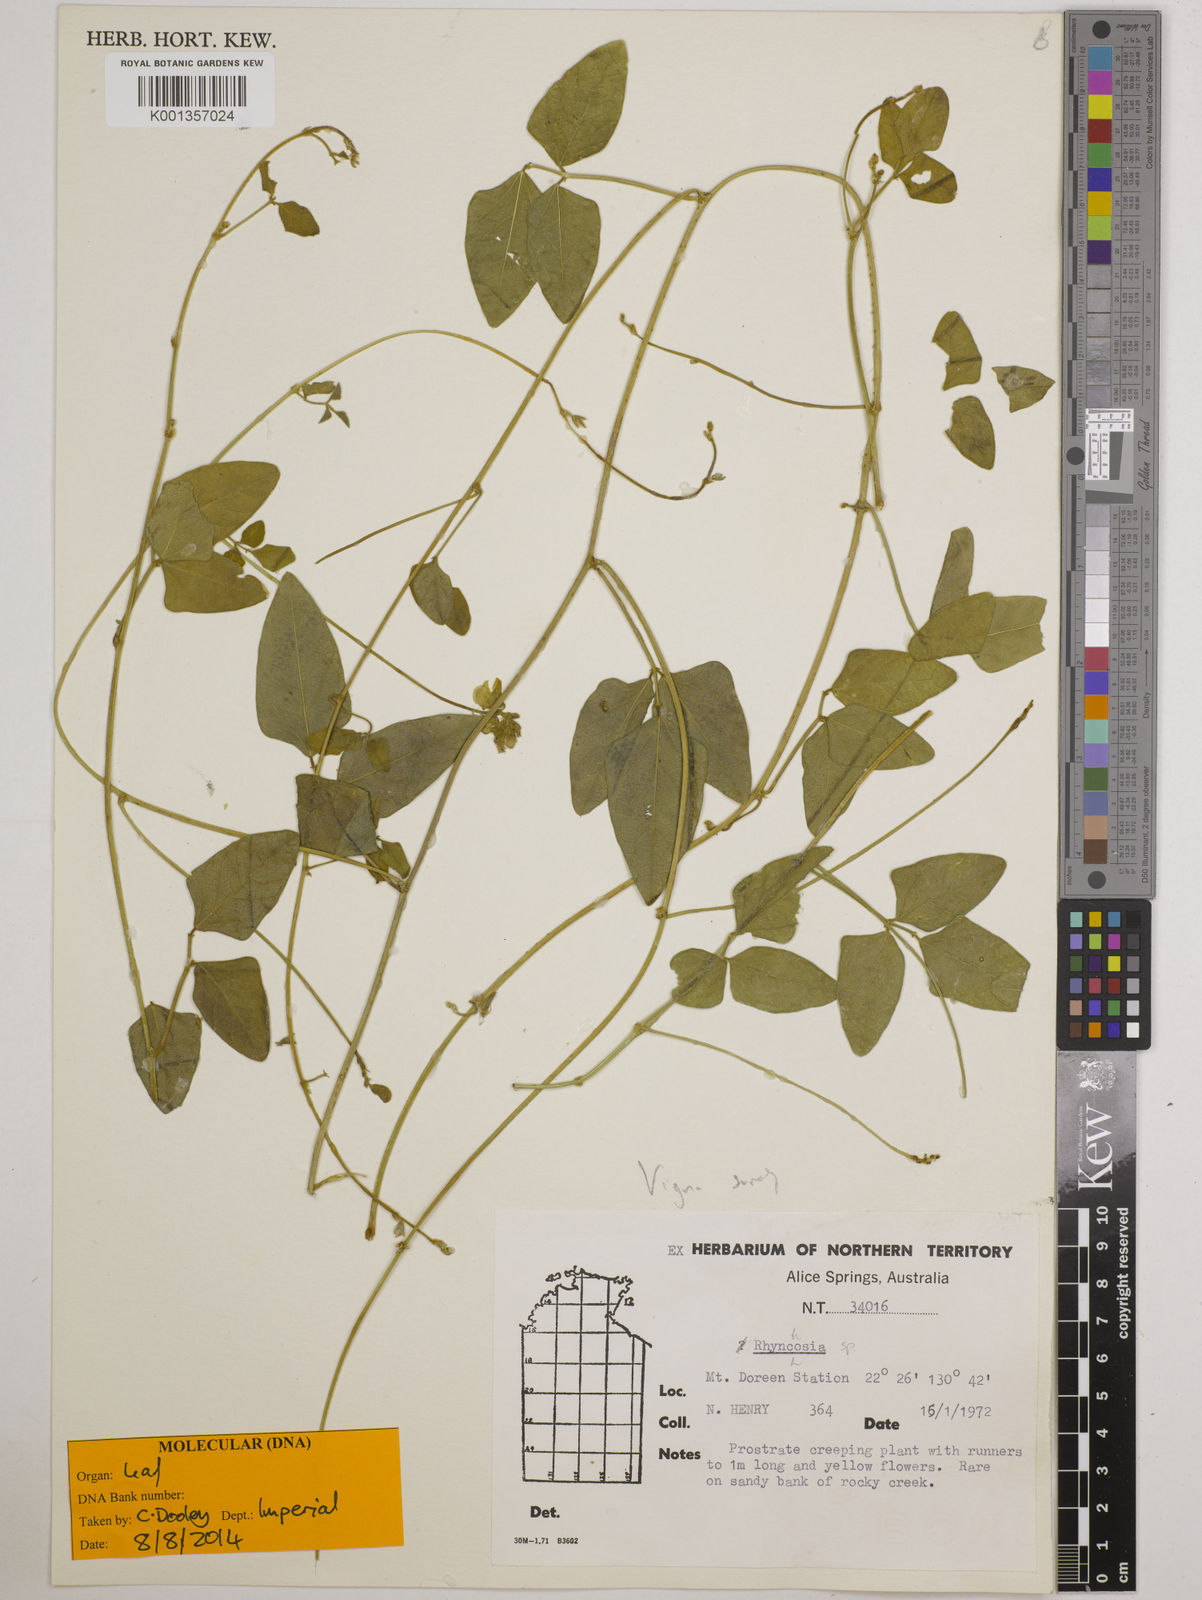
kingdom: Plantae
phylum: Tracheophyta
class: Magnoliopsida
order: Fabales
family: Fabaceae
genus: Vigna
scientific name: Vigna
